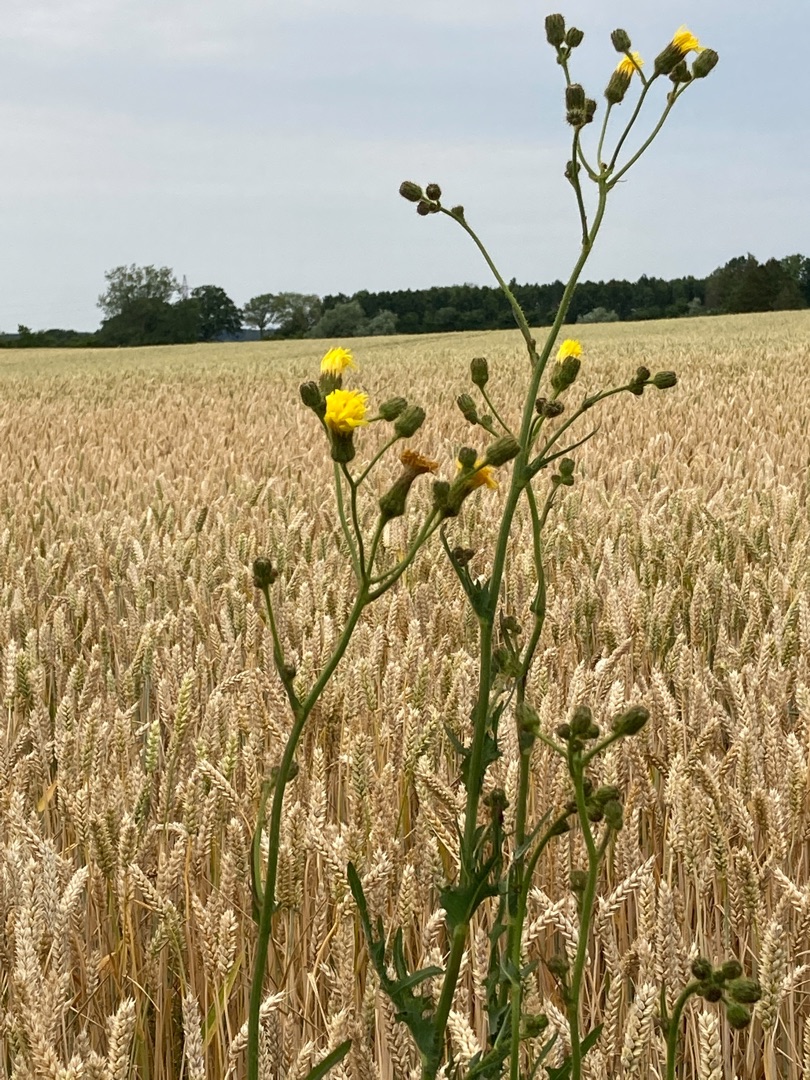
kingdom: Plantae
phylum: Tracheophyta
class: Magnoliopsida
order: Asterales
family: Asteraceae
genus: Sonchus
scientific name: Sonchus arvensis
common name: Ager-svinemælk
